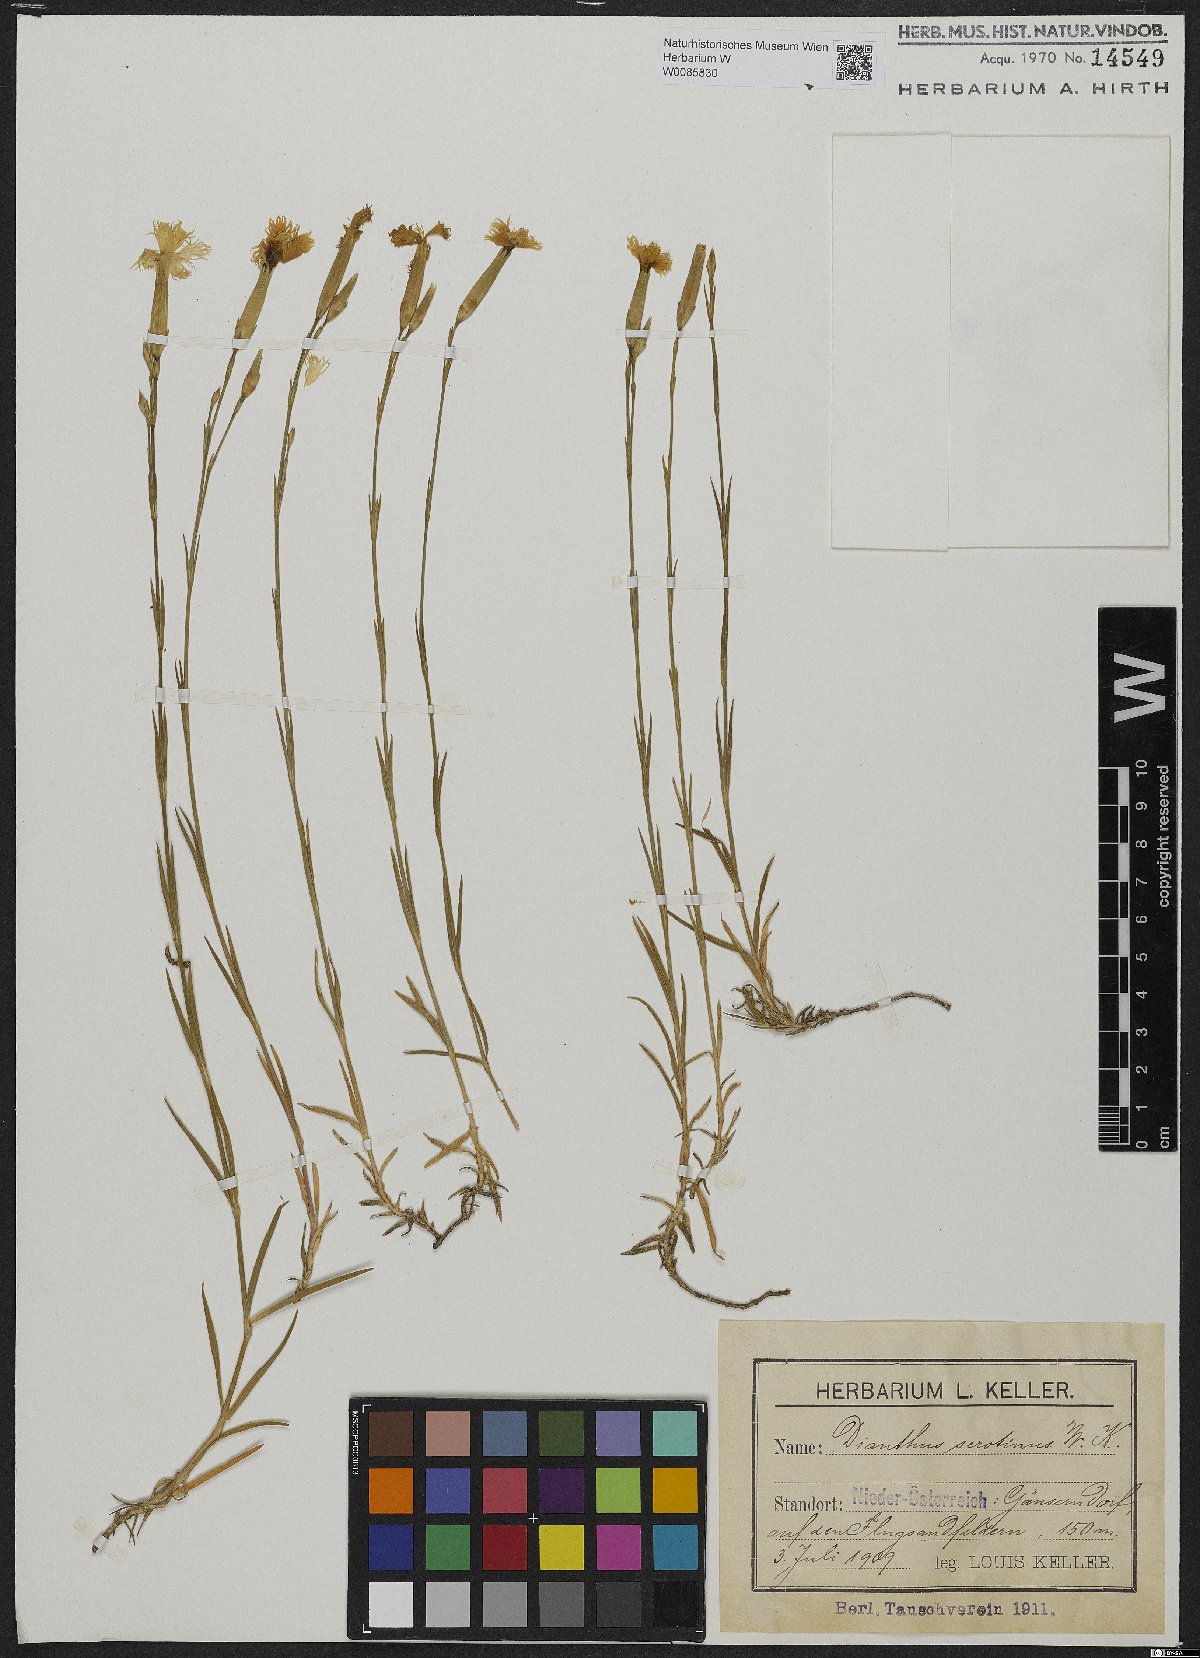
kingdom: Plantae
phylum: Tracheophyta
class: Magnoliopsida
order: Caryophyllales
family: Caryophyllaceae
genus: Dianthus
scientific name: Dianthus serotinus
